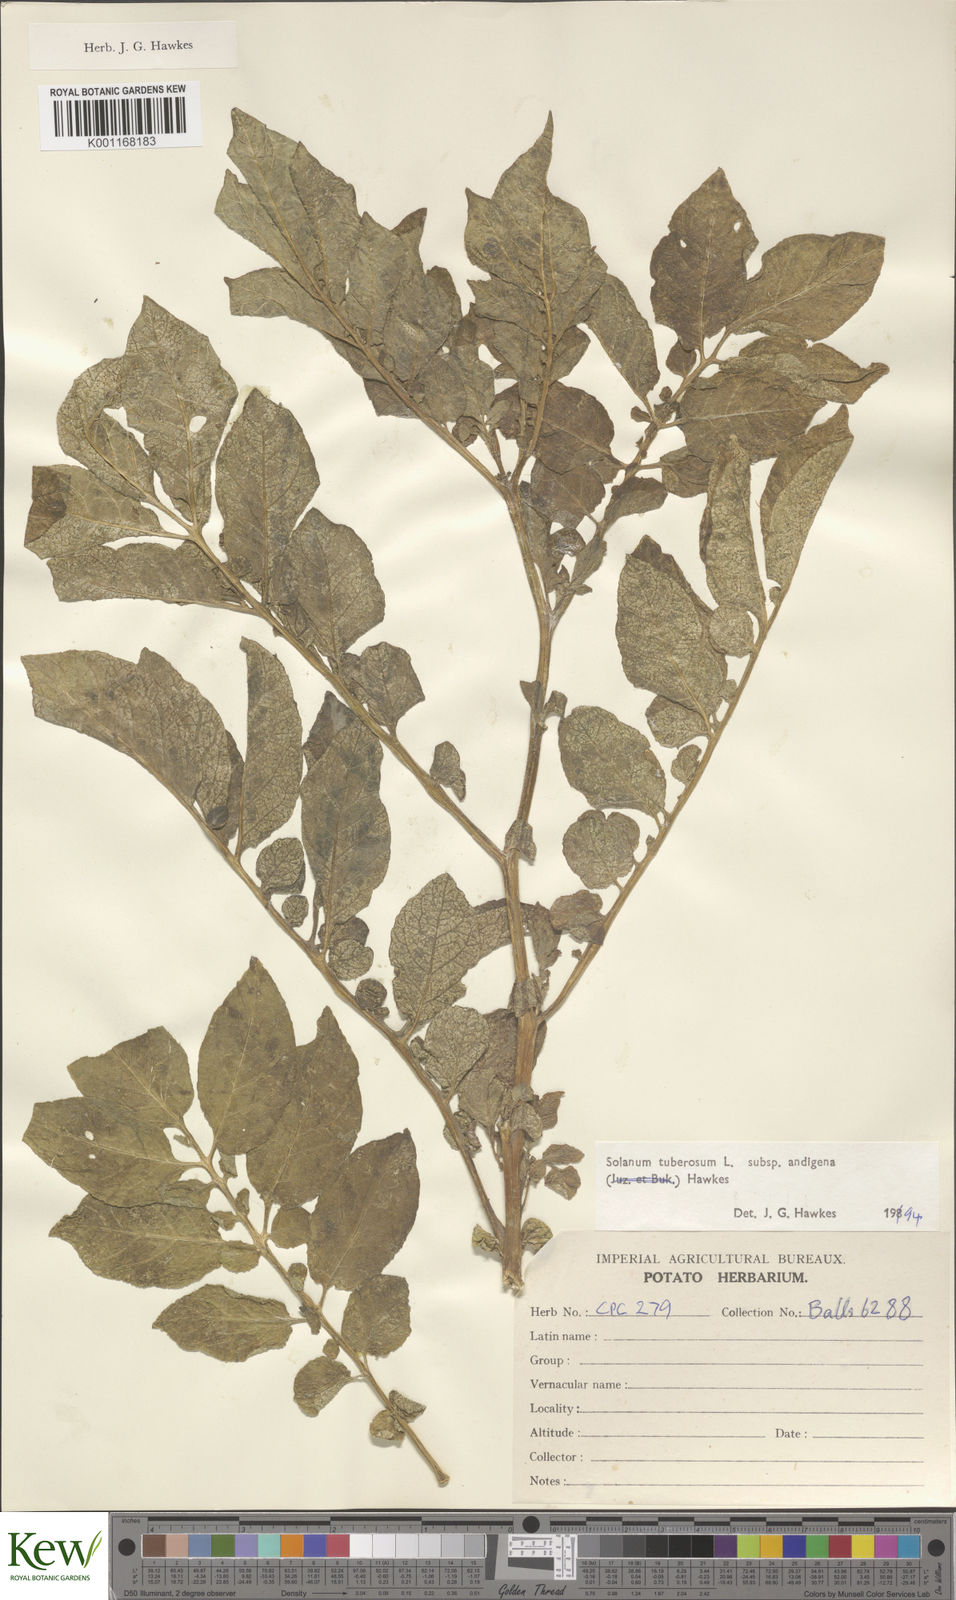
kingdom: Plantae
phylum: Tracheophyta
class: Magnoliopsida
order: Solanales
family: Solanaceae
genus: Solanum
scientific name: Solanum tuberosum
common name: Potato
